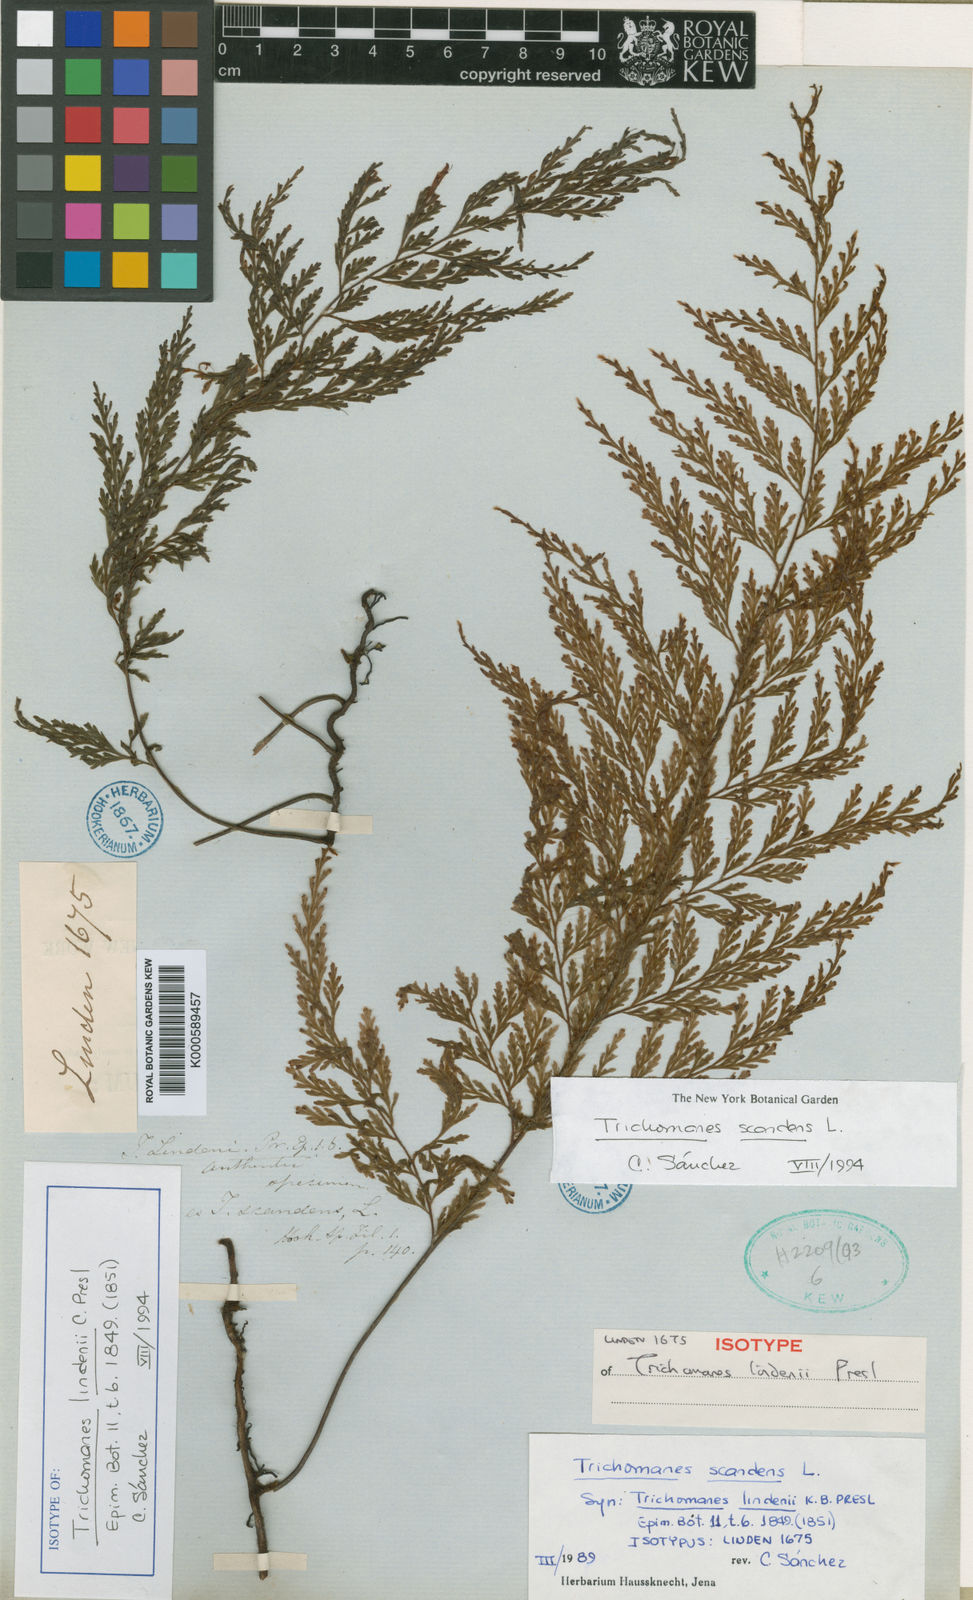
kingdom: Plantae
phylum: Tracheophyta
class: Polypodiopsida
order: Hymenophyllales
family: Hymenophyllaceae
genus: Trichomanes
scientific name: Trichomanes scandens
